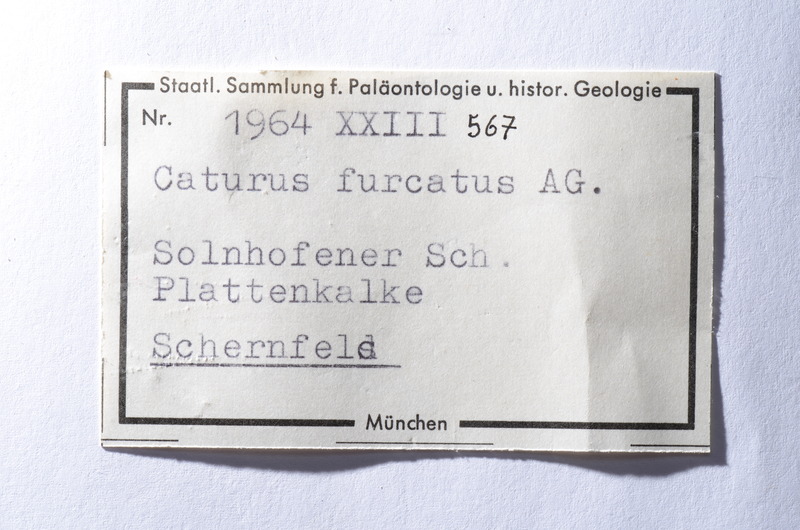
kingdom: Animalia
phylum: Chordata
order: Amiiformes
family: Caturidae
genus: Caturus
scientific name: Caturus furcatus
